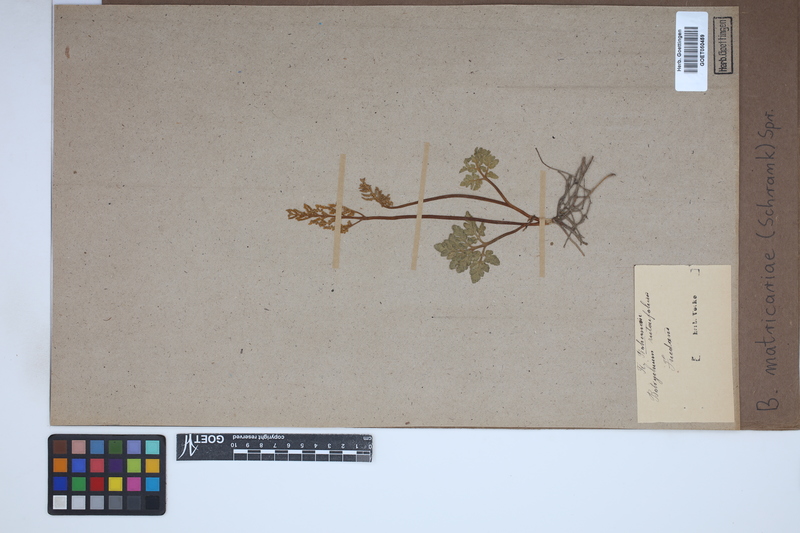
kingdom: Plantae
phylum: Tracheophyta
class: Polypodiopsida
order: Ophioglossales
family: Ophioglossaceae
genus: Sceptridium
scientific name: Sceptridium multifidum
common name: Leathery grape fern
